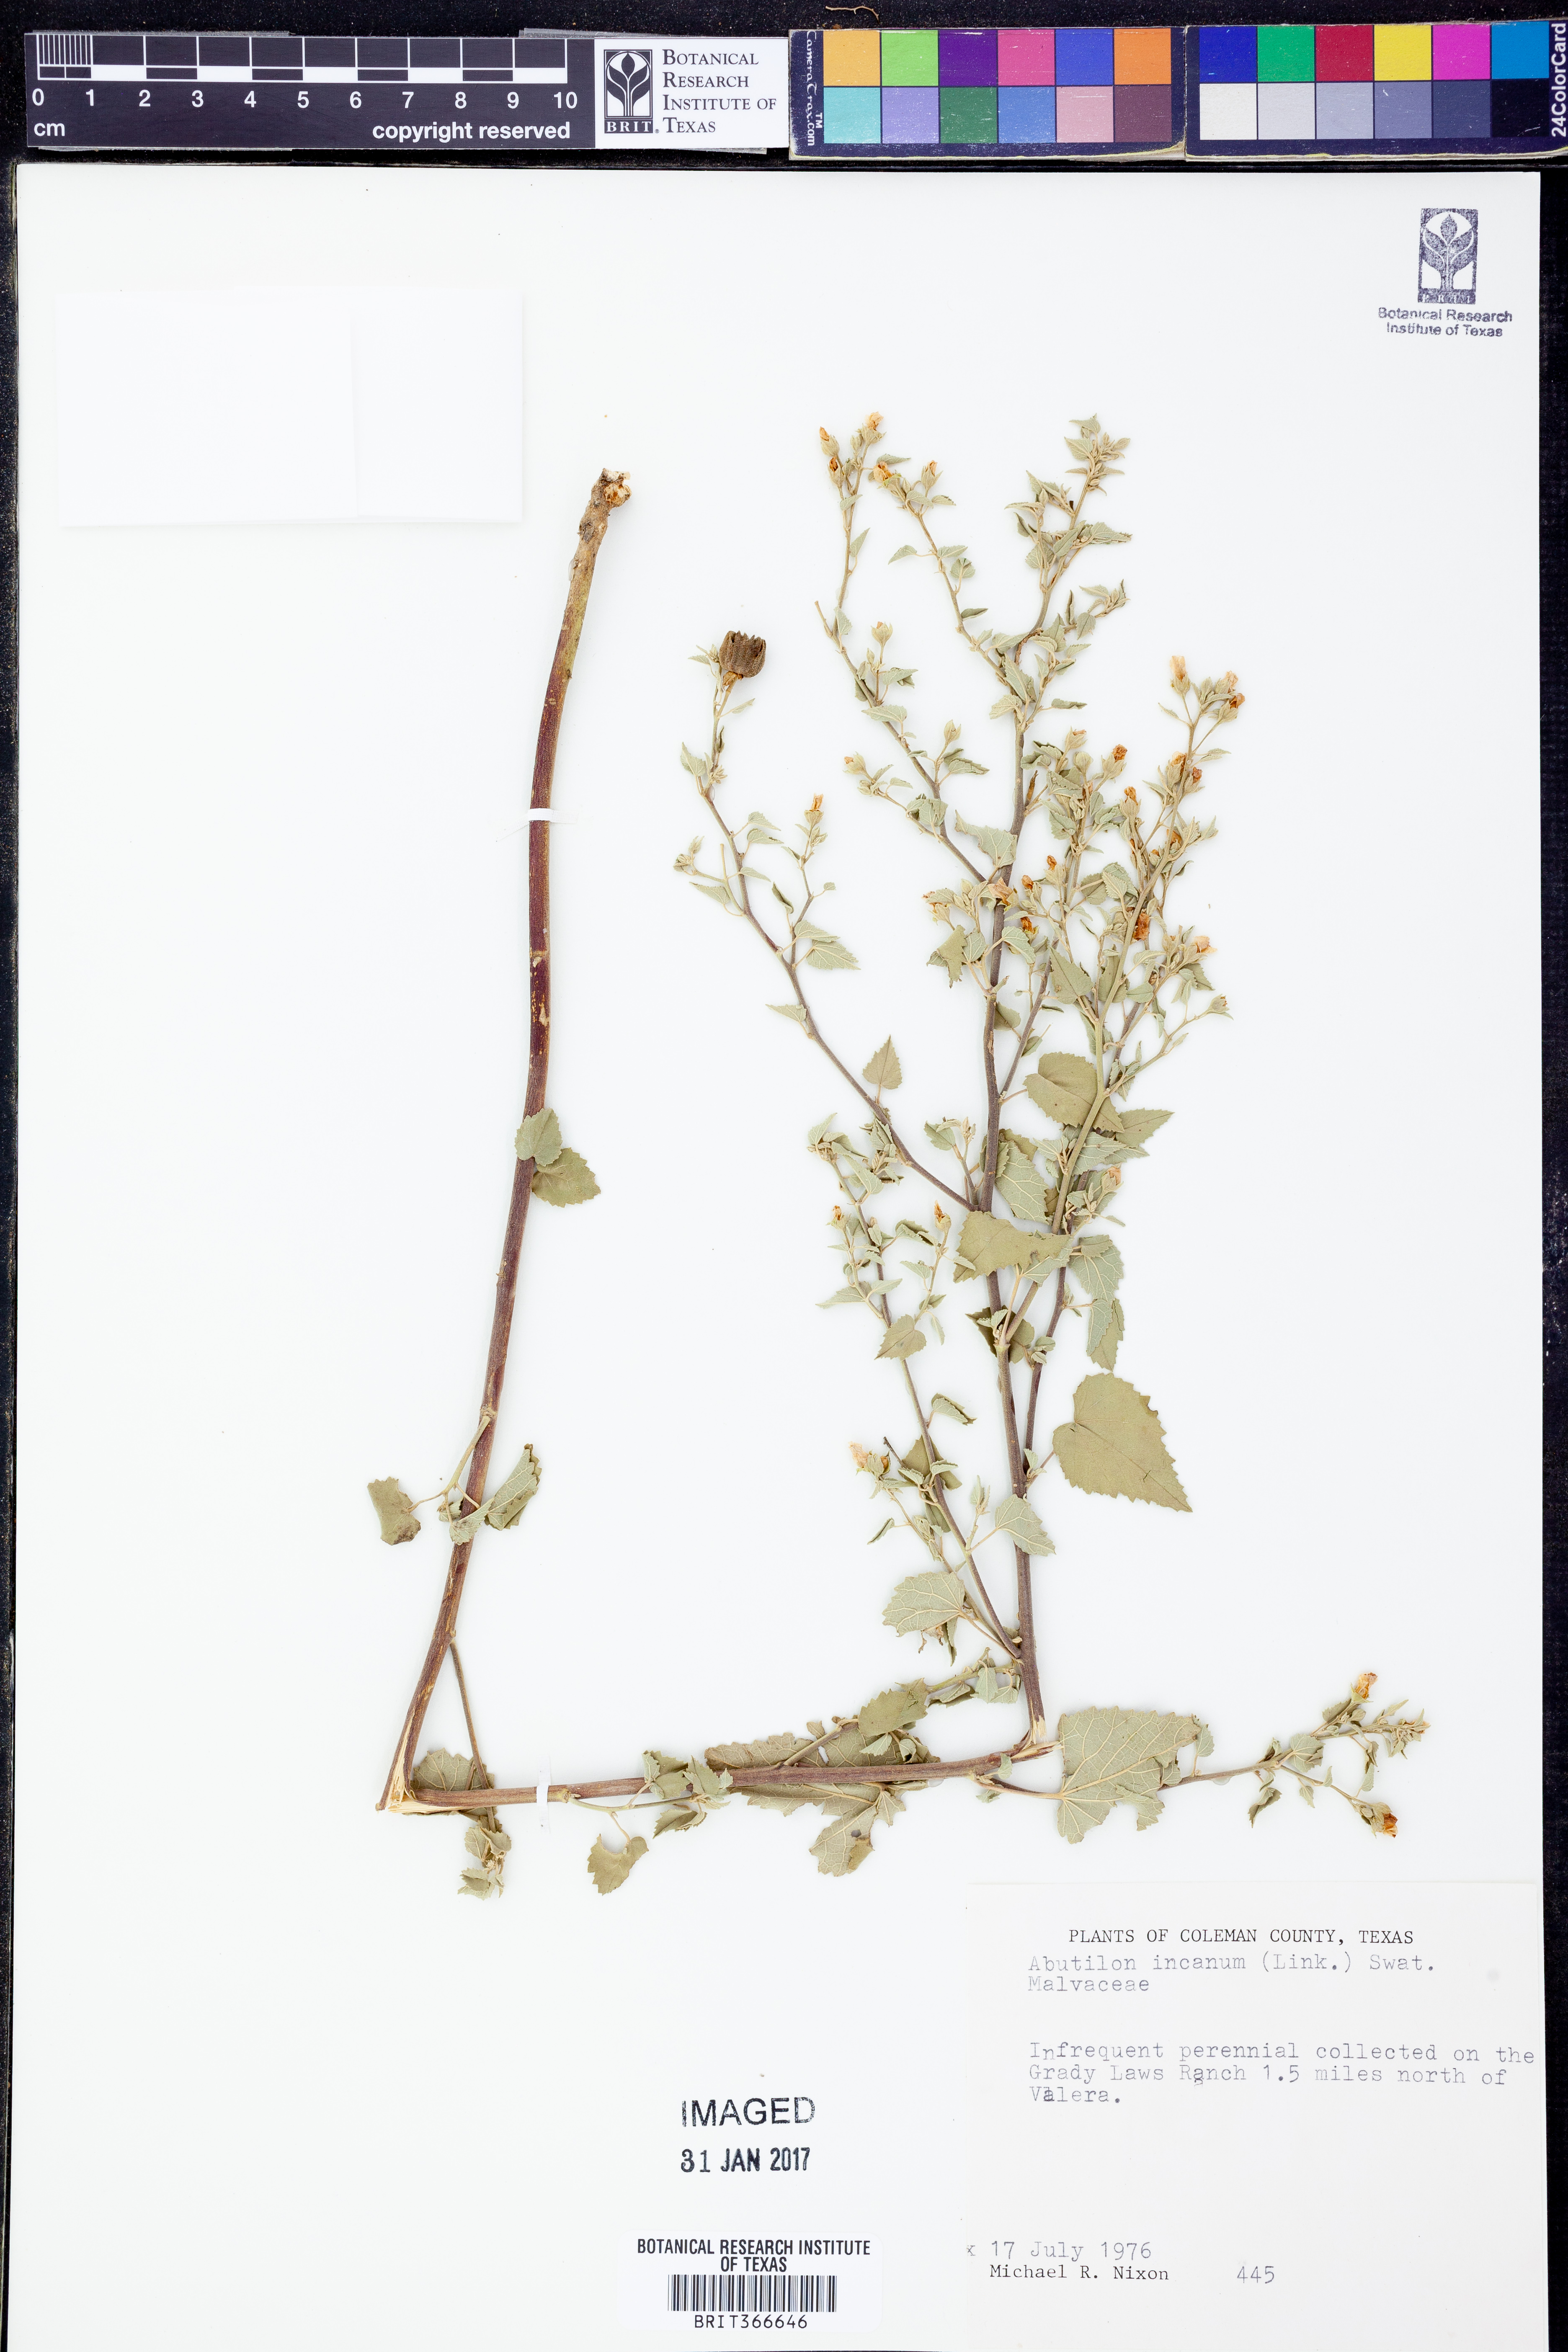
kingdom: Plantae
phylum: Tracheophyta
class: Magnoliopsida
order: Malvales
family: Malvaceae
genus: Abutilon
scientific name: Abutilon incanum
